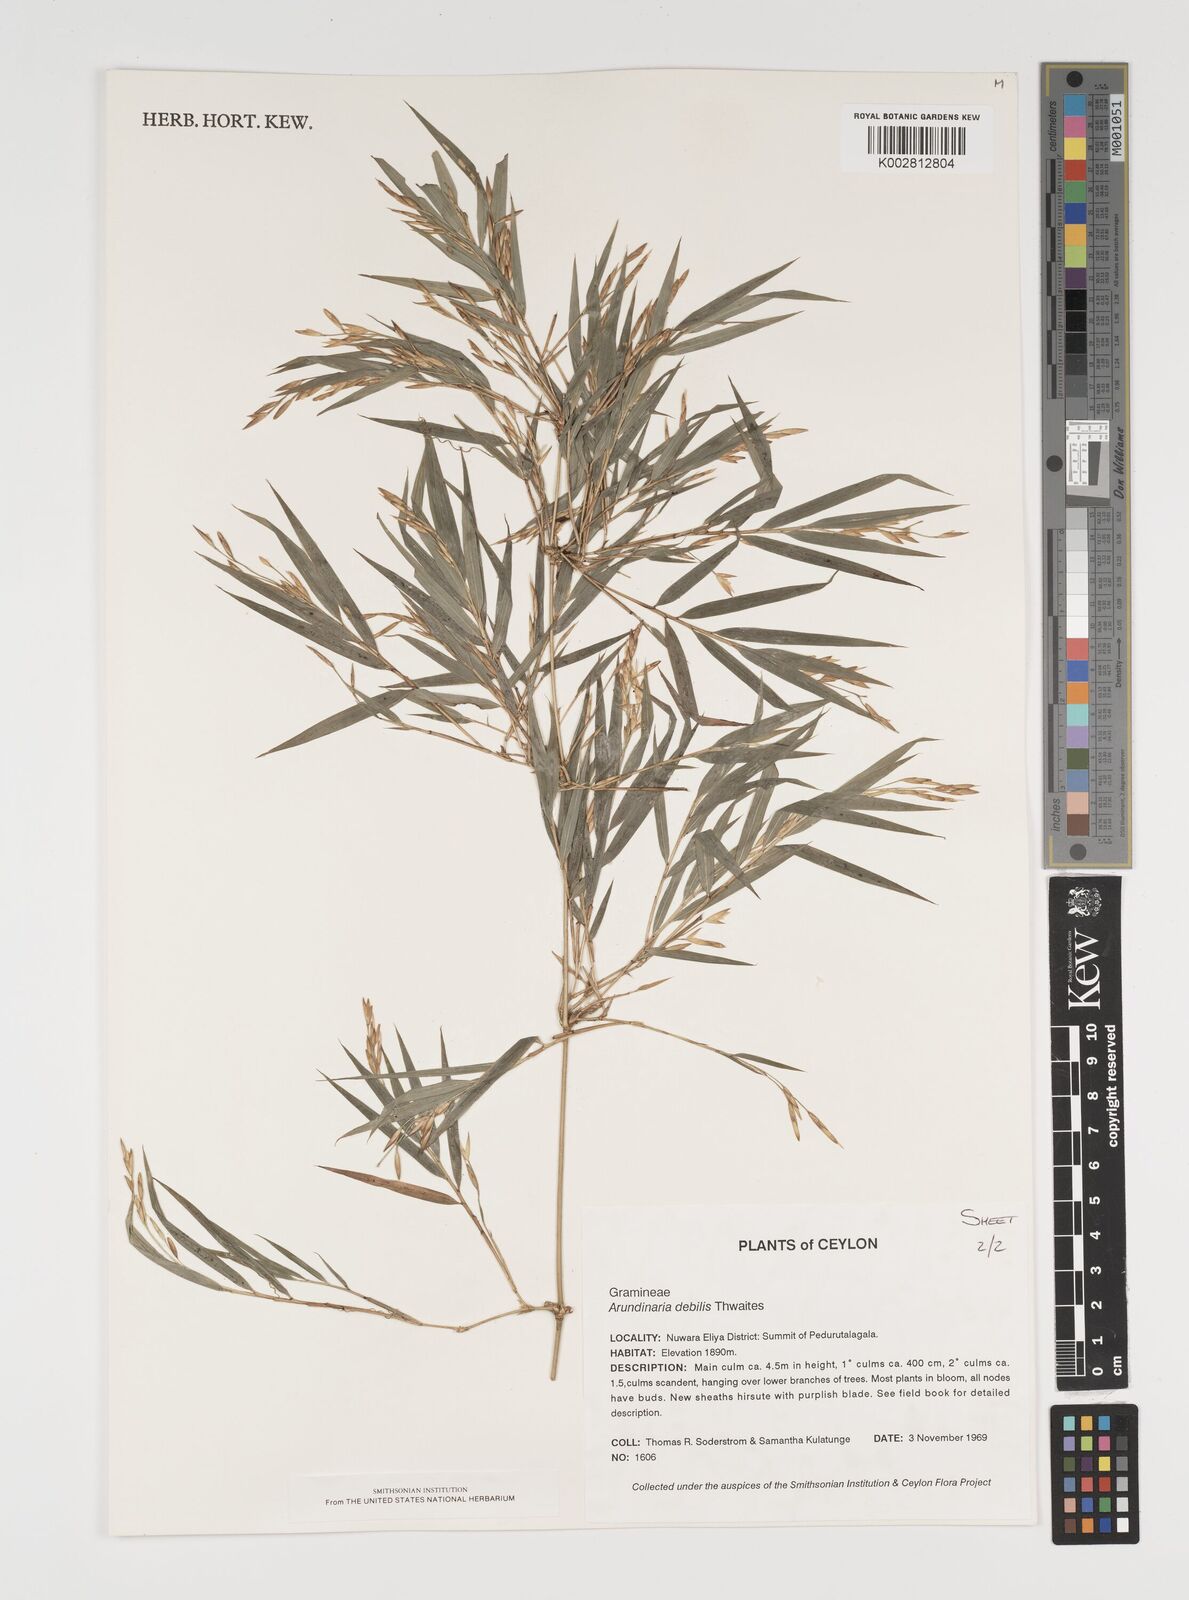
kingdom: Plantae
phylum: Tracheophyta
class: Liliopsida
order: Poales
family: Poaceae
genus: Kuruna
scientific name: Kuruna debilis
